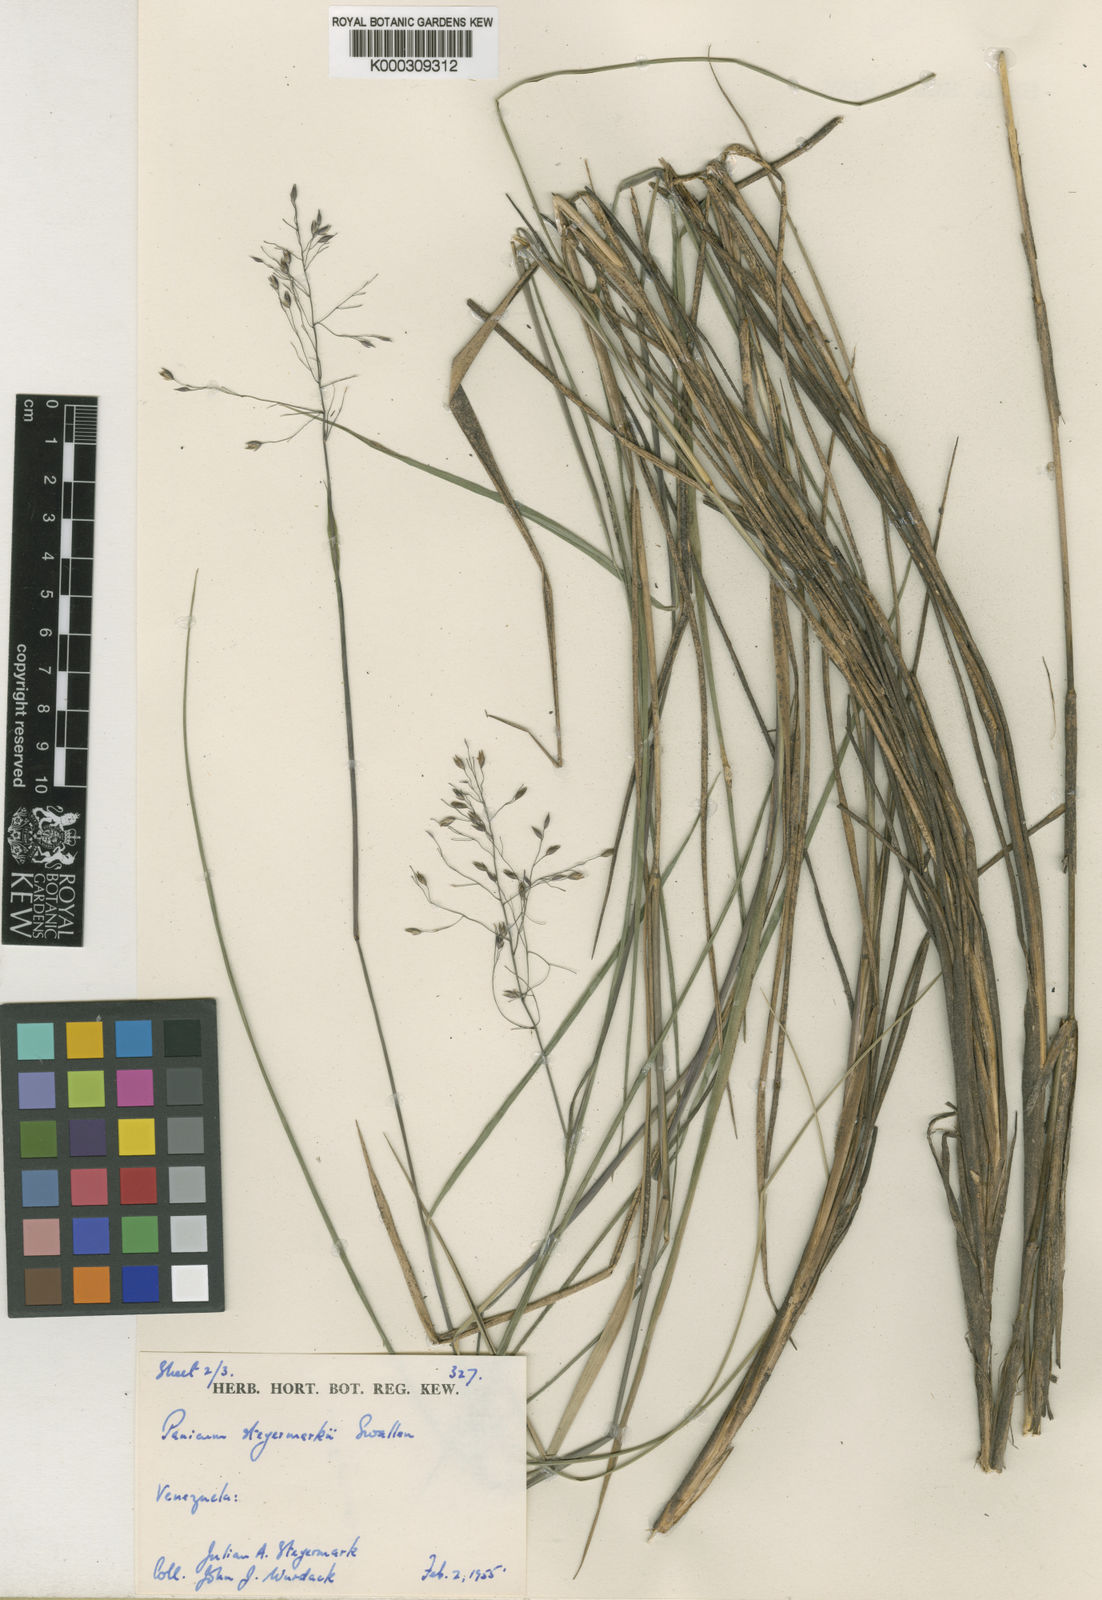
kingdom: Plantae
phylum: Tracheophyta
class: Liliopsida
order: Poales
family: Poaceae
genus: Apochloa
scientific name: Apochloa steyermarkii
